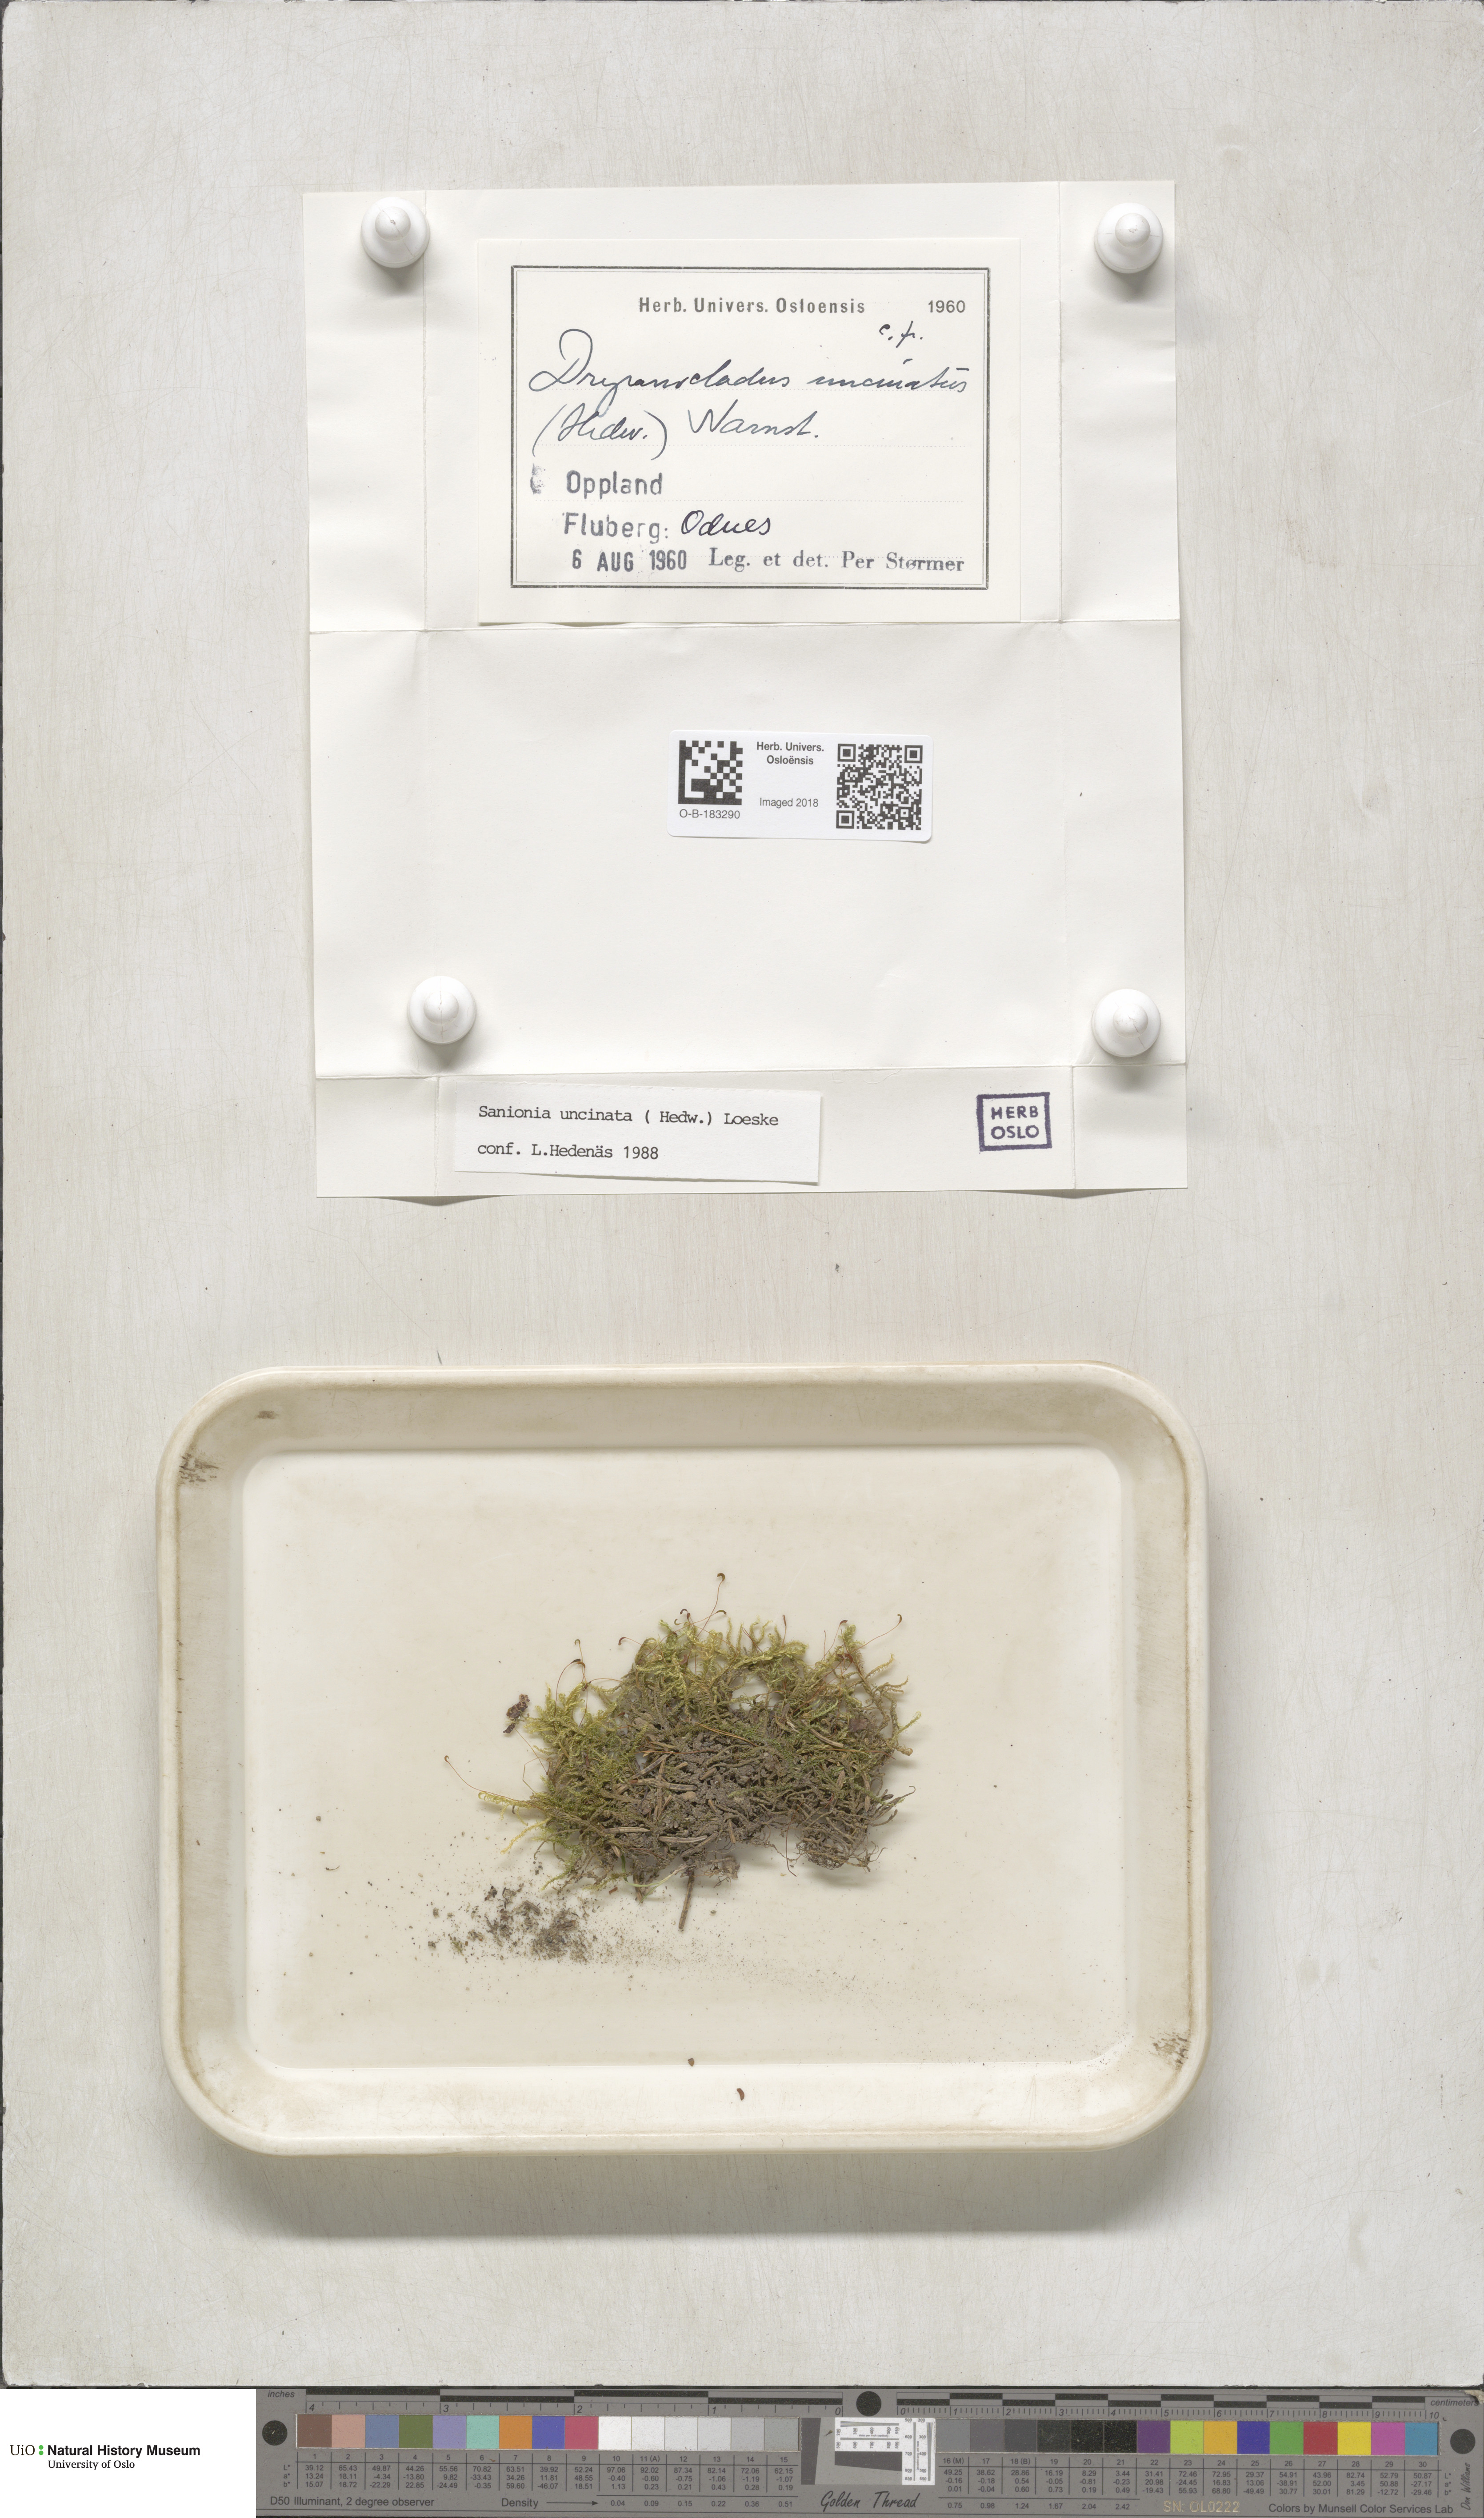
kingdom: Plantae
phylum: Bryophyta
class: Bryopsida
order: Hypnales
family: Scorpidiaceae
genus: Sanionia
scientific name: Sanionia uncinata
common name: Sickle moss
